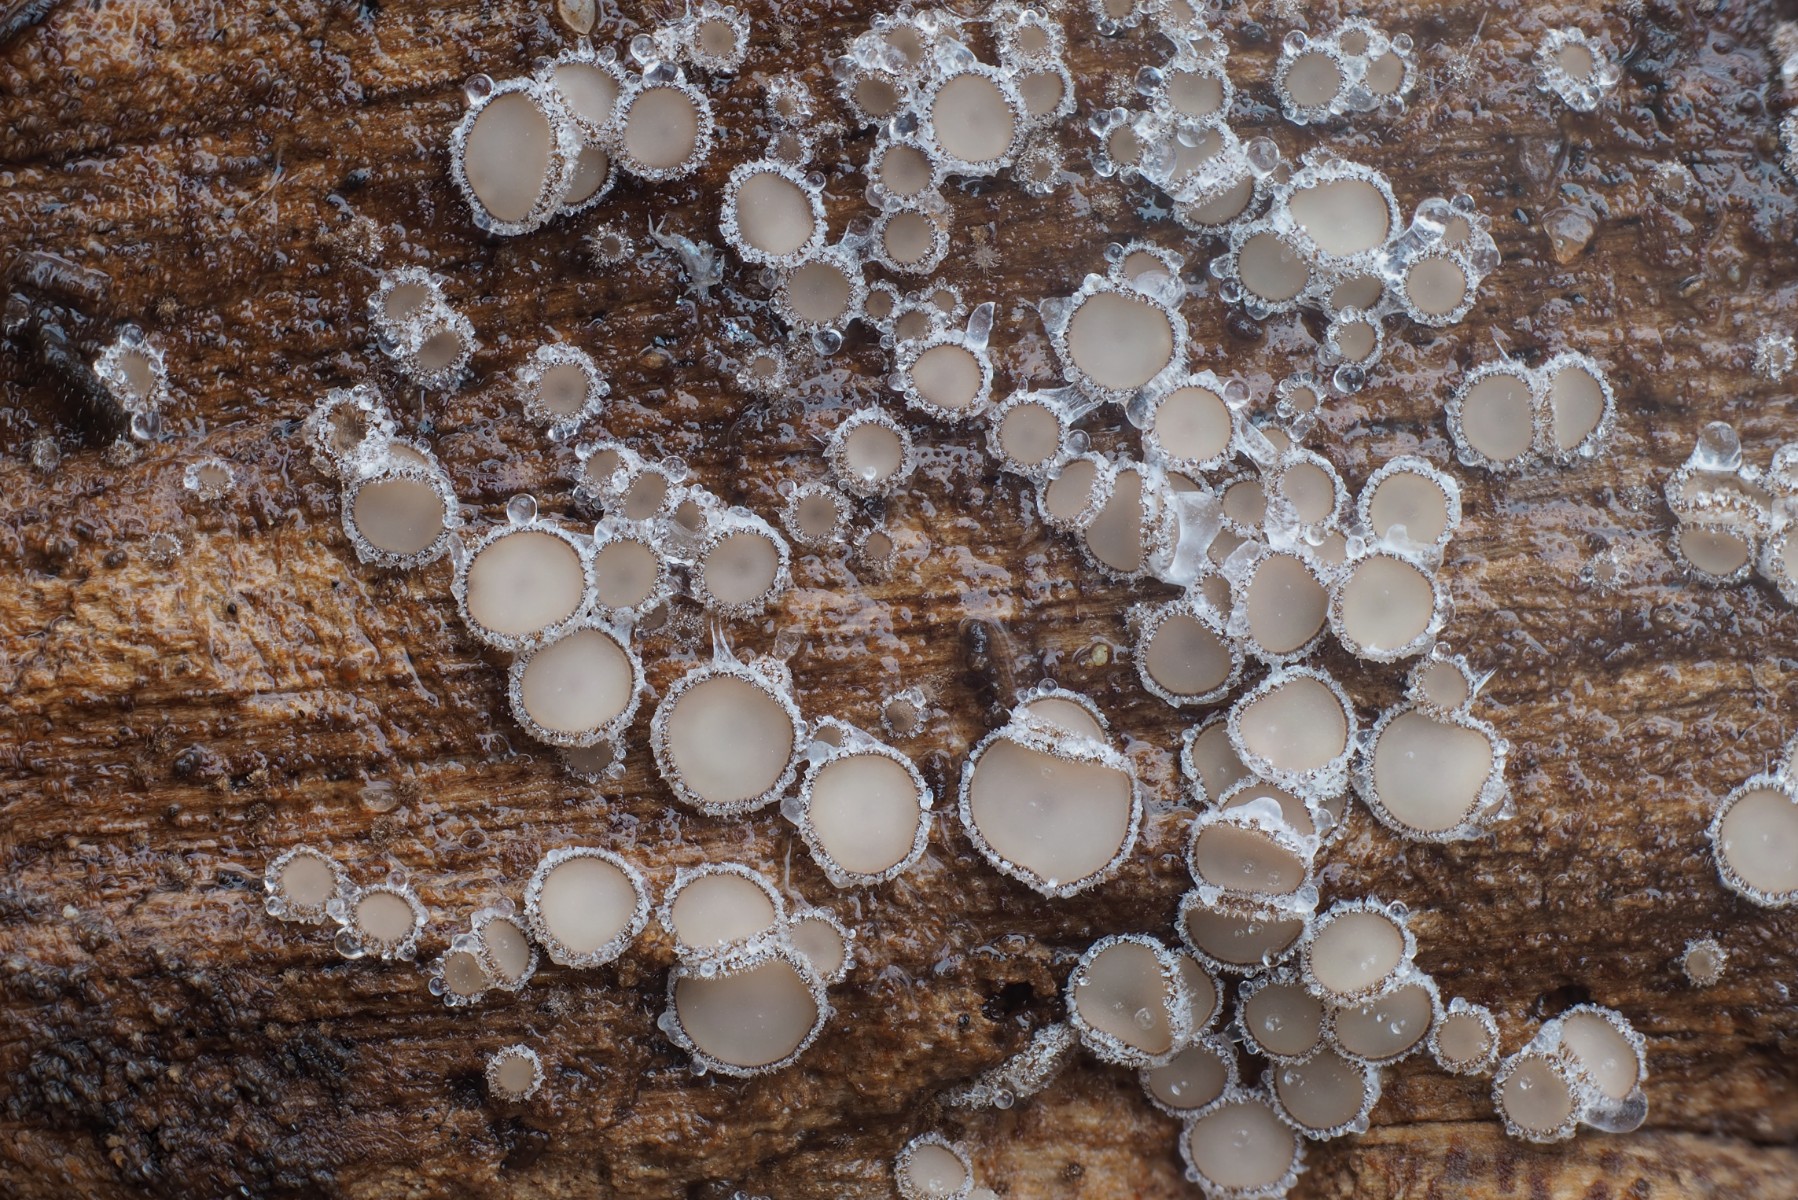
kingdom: Fungi
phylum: Ascomycota
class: Leotiomycetes
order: Helotiales
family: Solenopeziaceae
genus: Lasiobelonium
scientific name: Lasiobelonium variegatum
